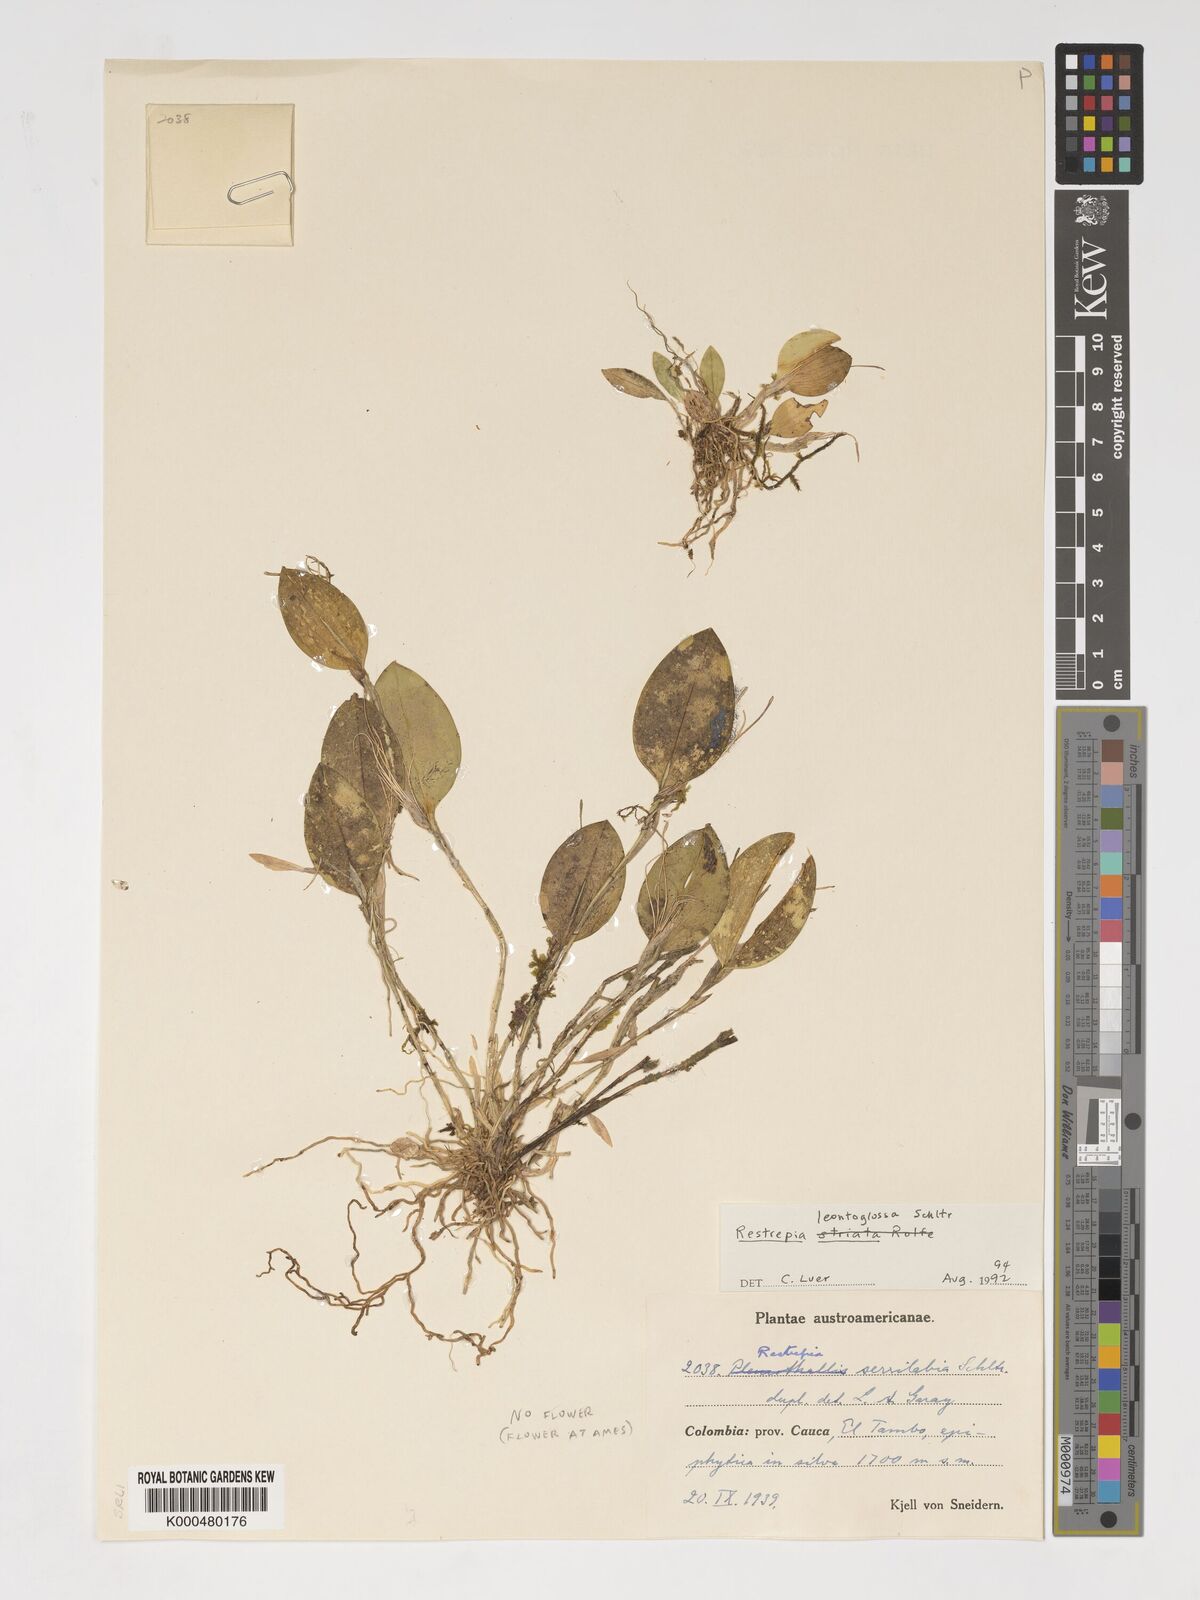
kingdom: Plantae
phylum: Tracheophyta
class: Liliopsida
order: Asparagales
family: Orchidaceae
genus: Pterostylis
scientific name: Pterostylis
